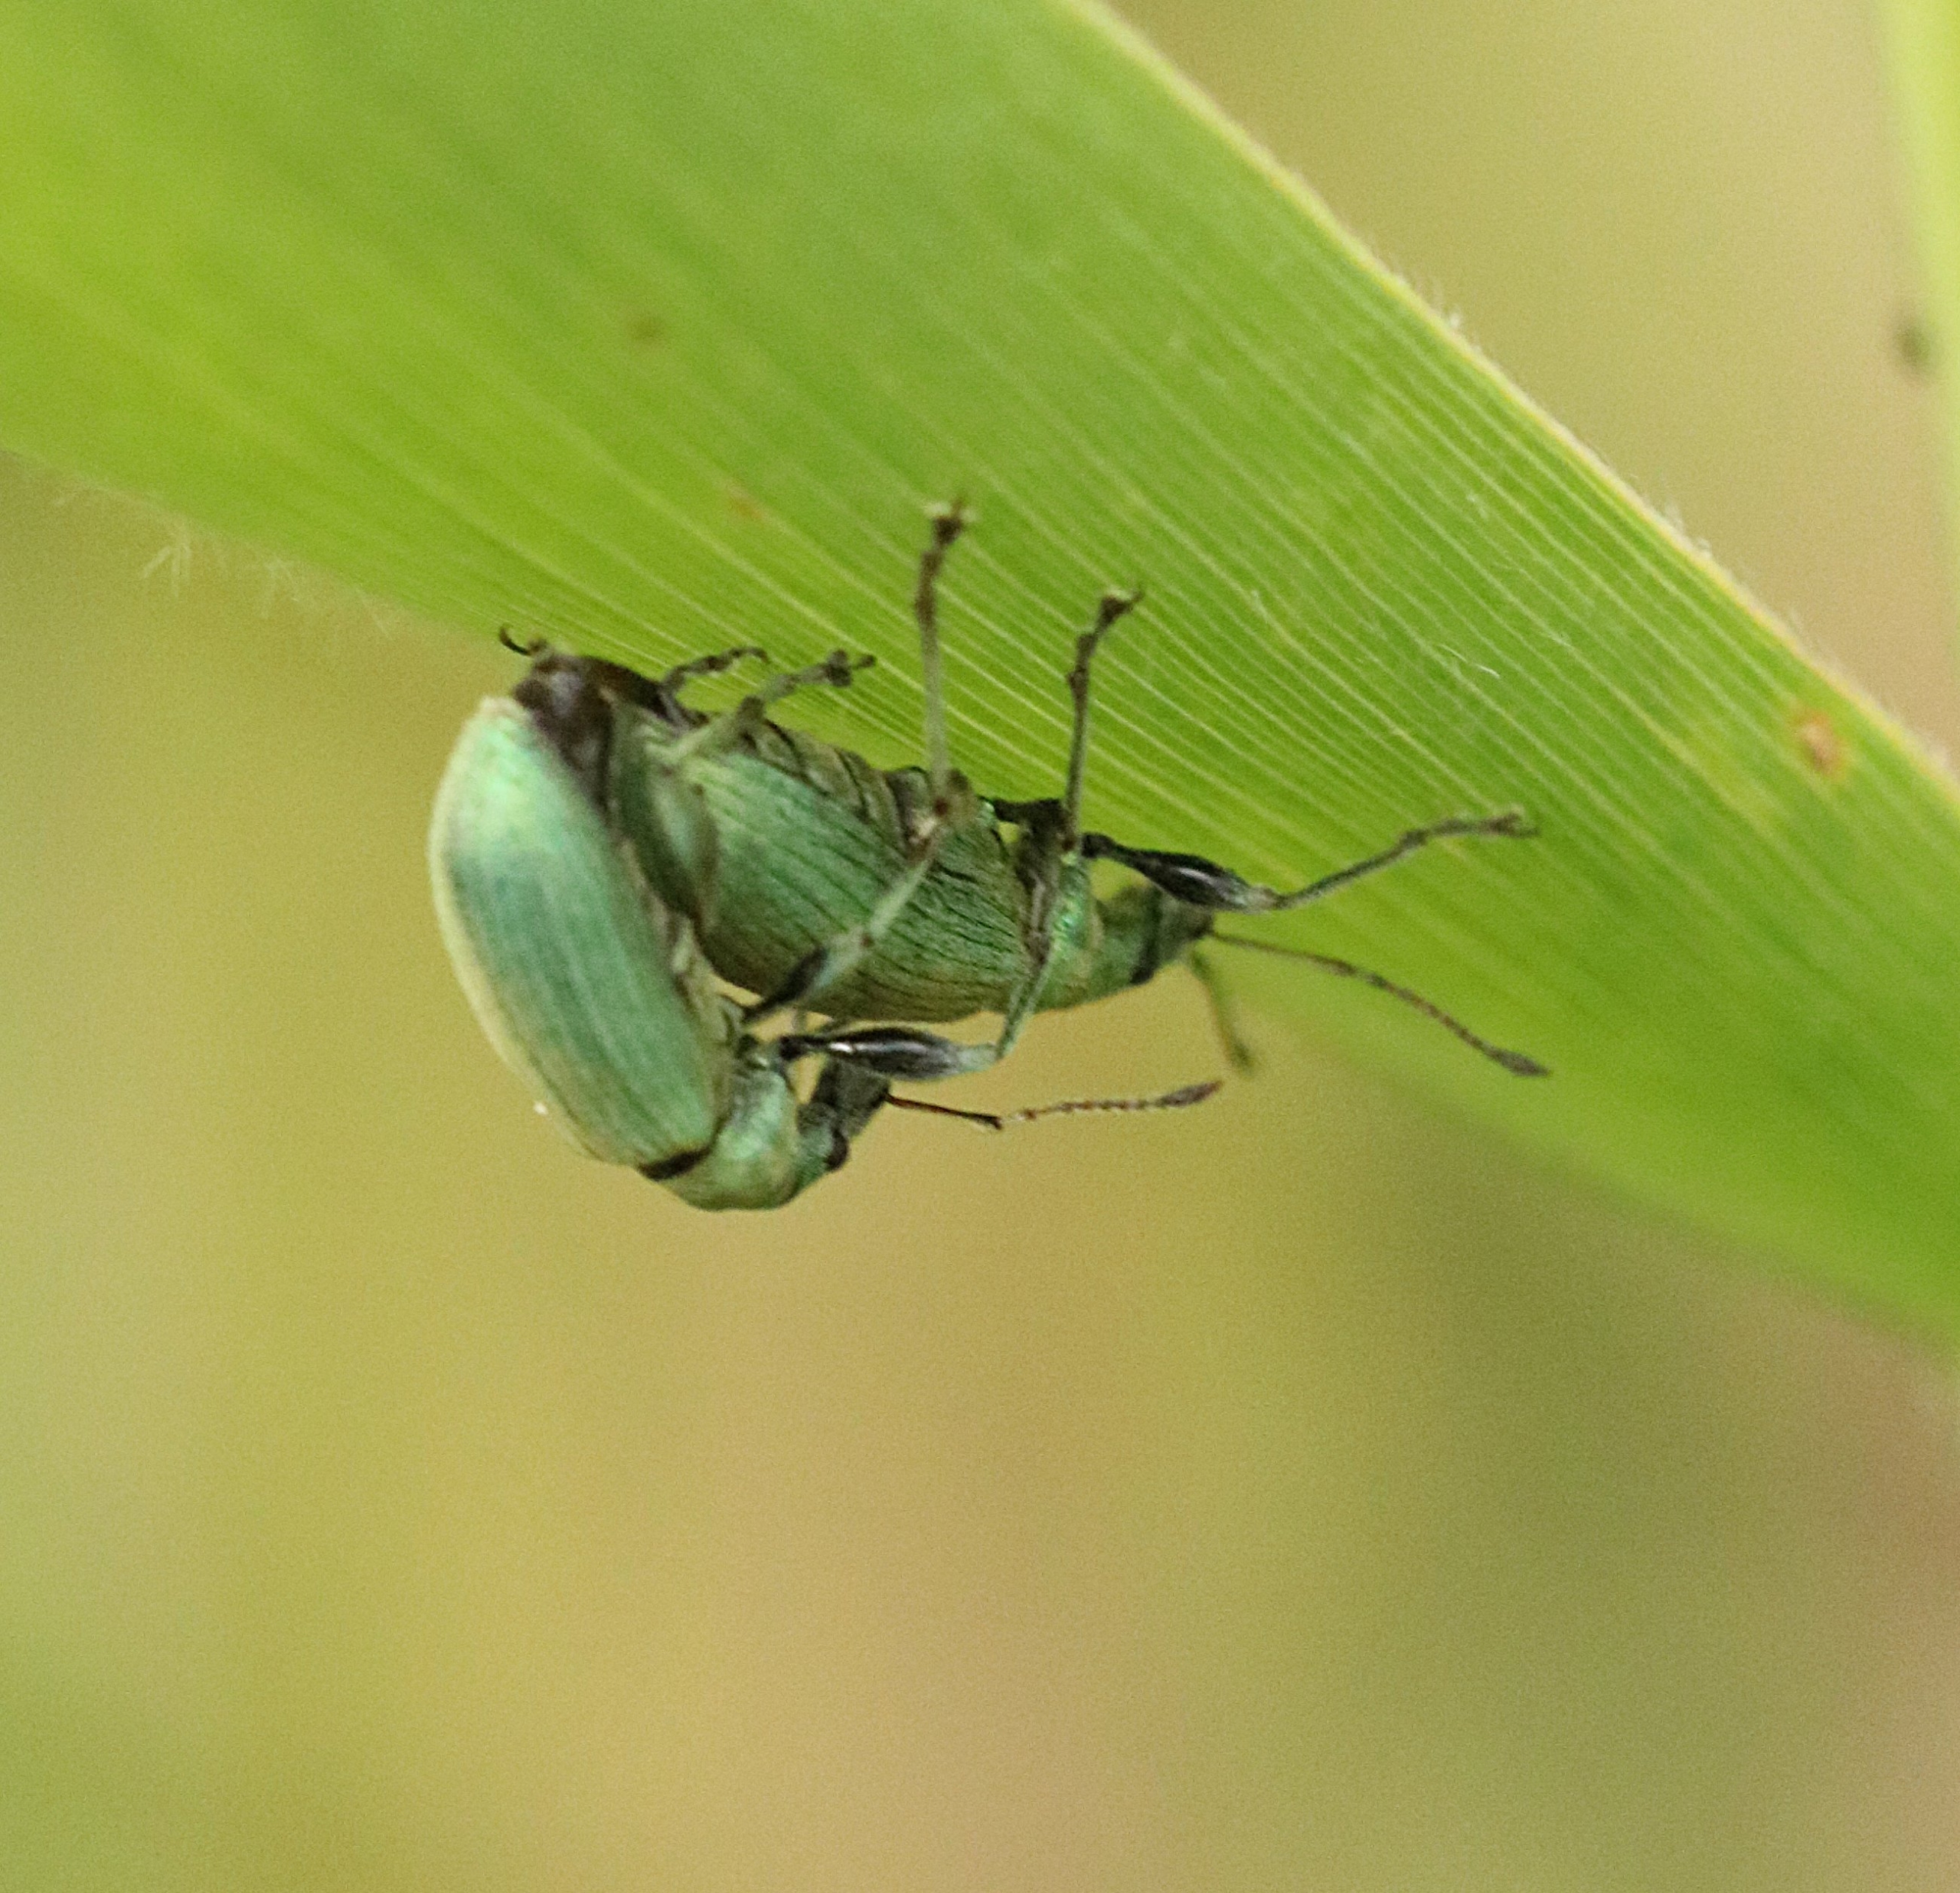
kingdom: Animalia
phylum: Arthropoda
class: Insecta
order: Coleoptera
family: Curculionidae
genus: Phyllobius
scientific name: Phyllobius pomaceus
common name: Nældesnudebille
